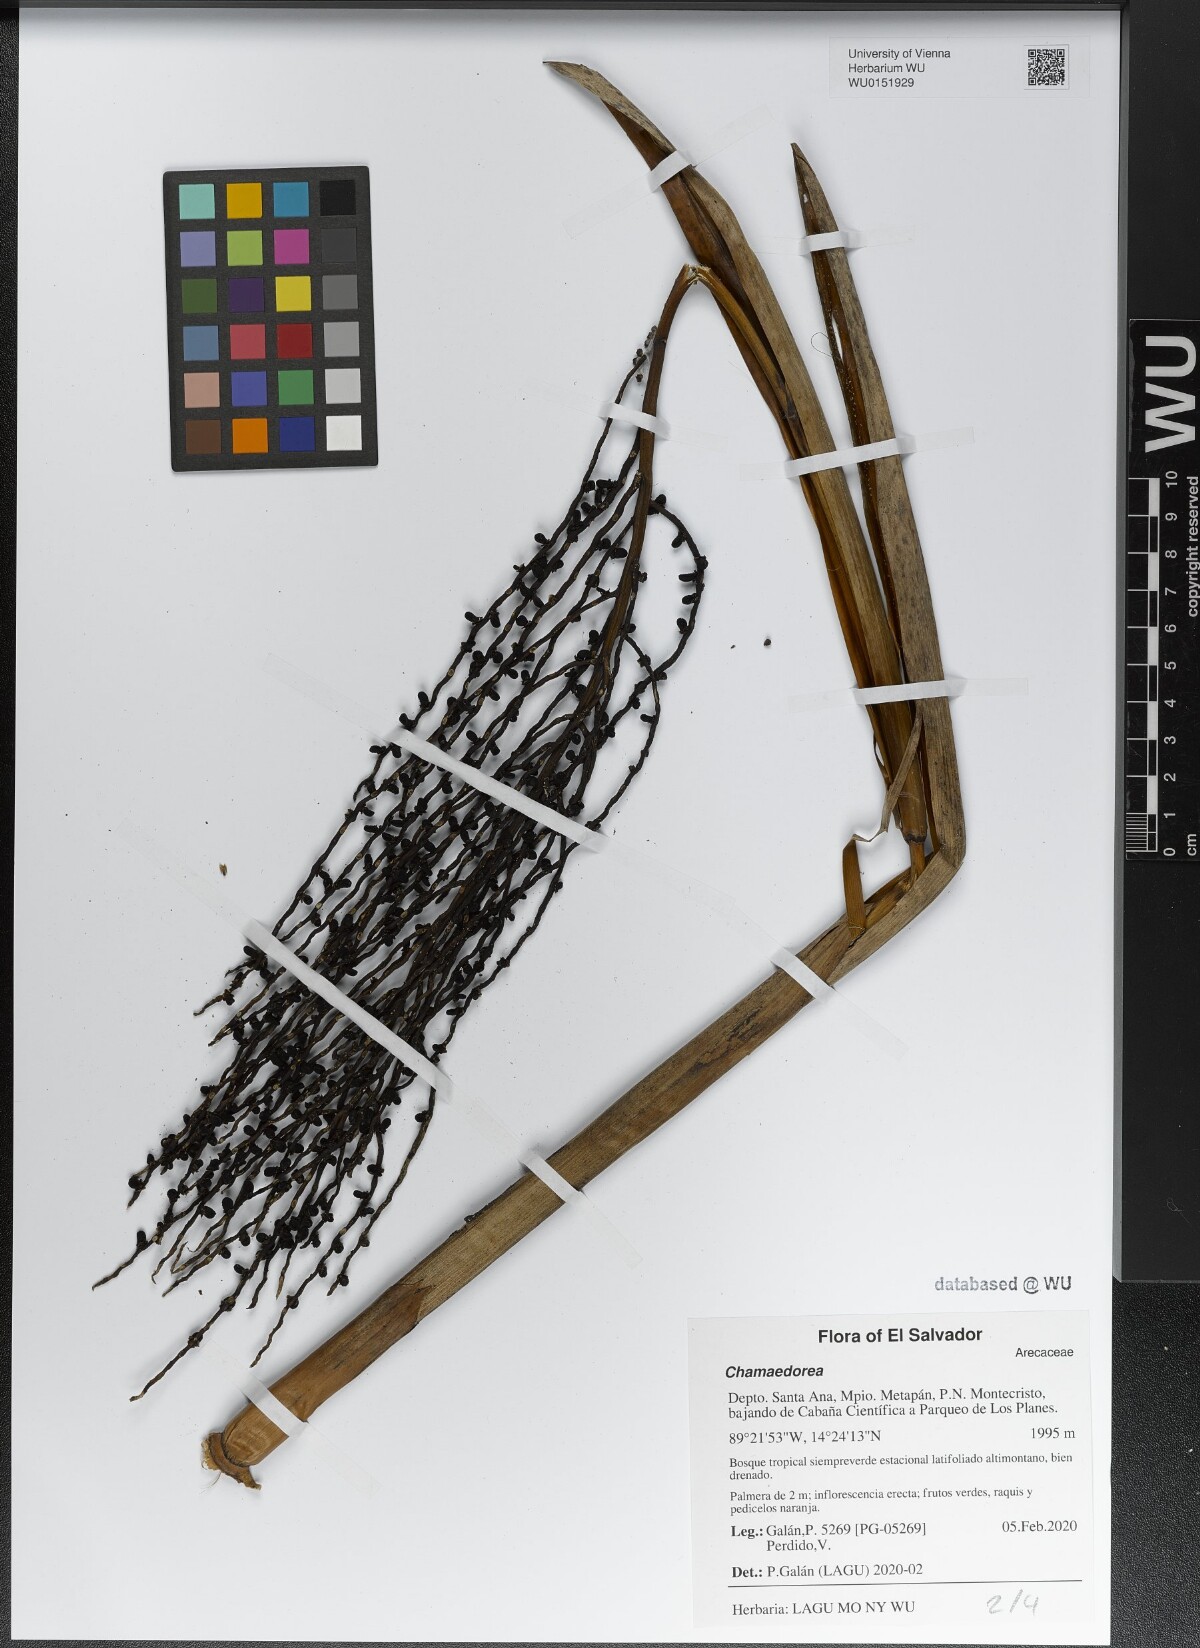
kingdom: Plantae
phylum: Tracheophyta
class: Liliopsida
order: Arecales
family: Arecaceae
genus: Chamaedorea
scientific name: Chamaedorea
